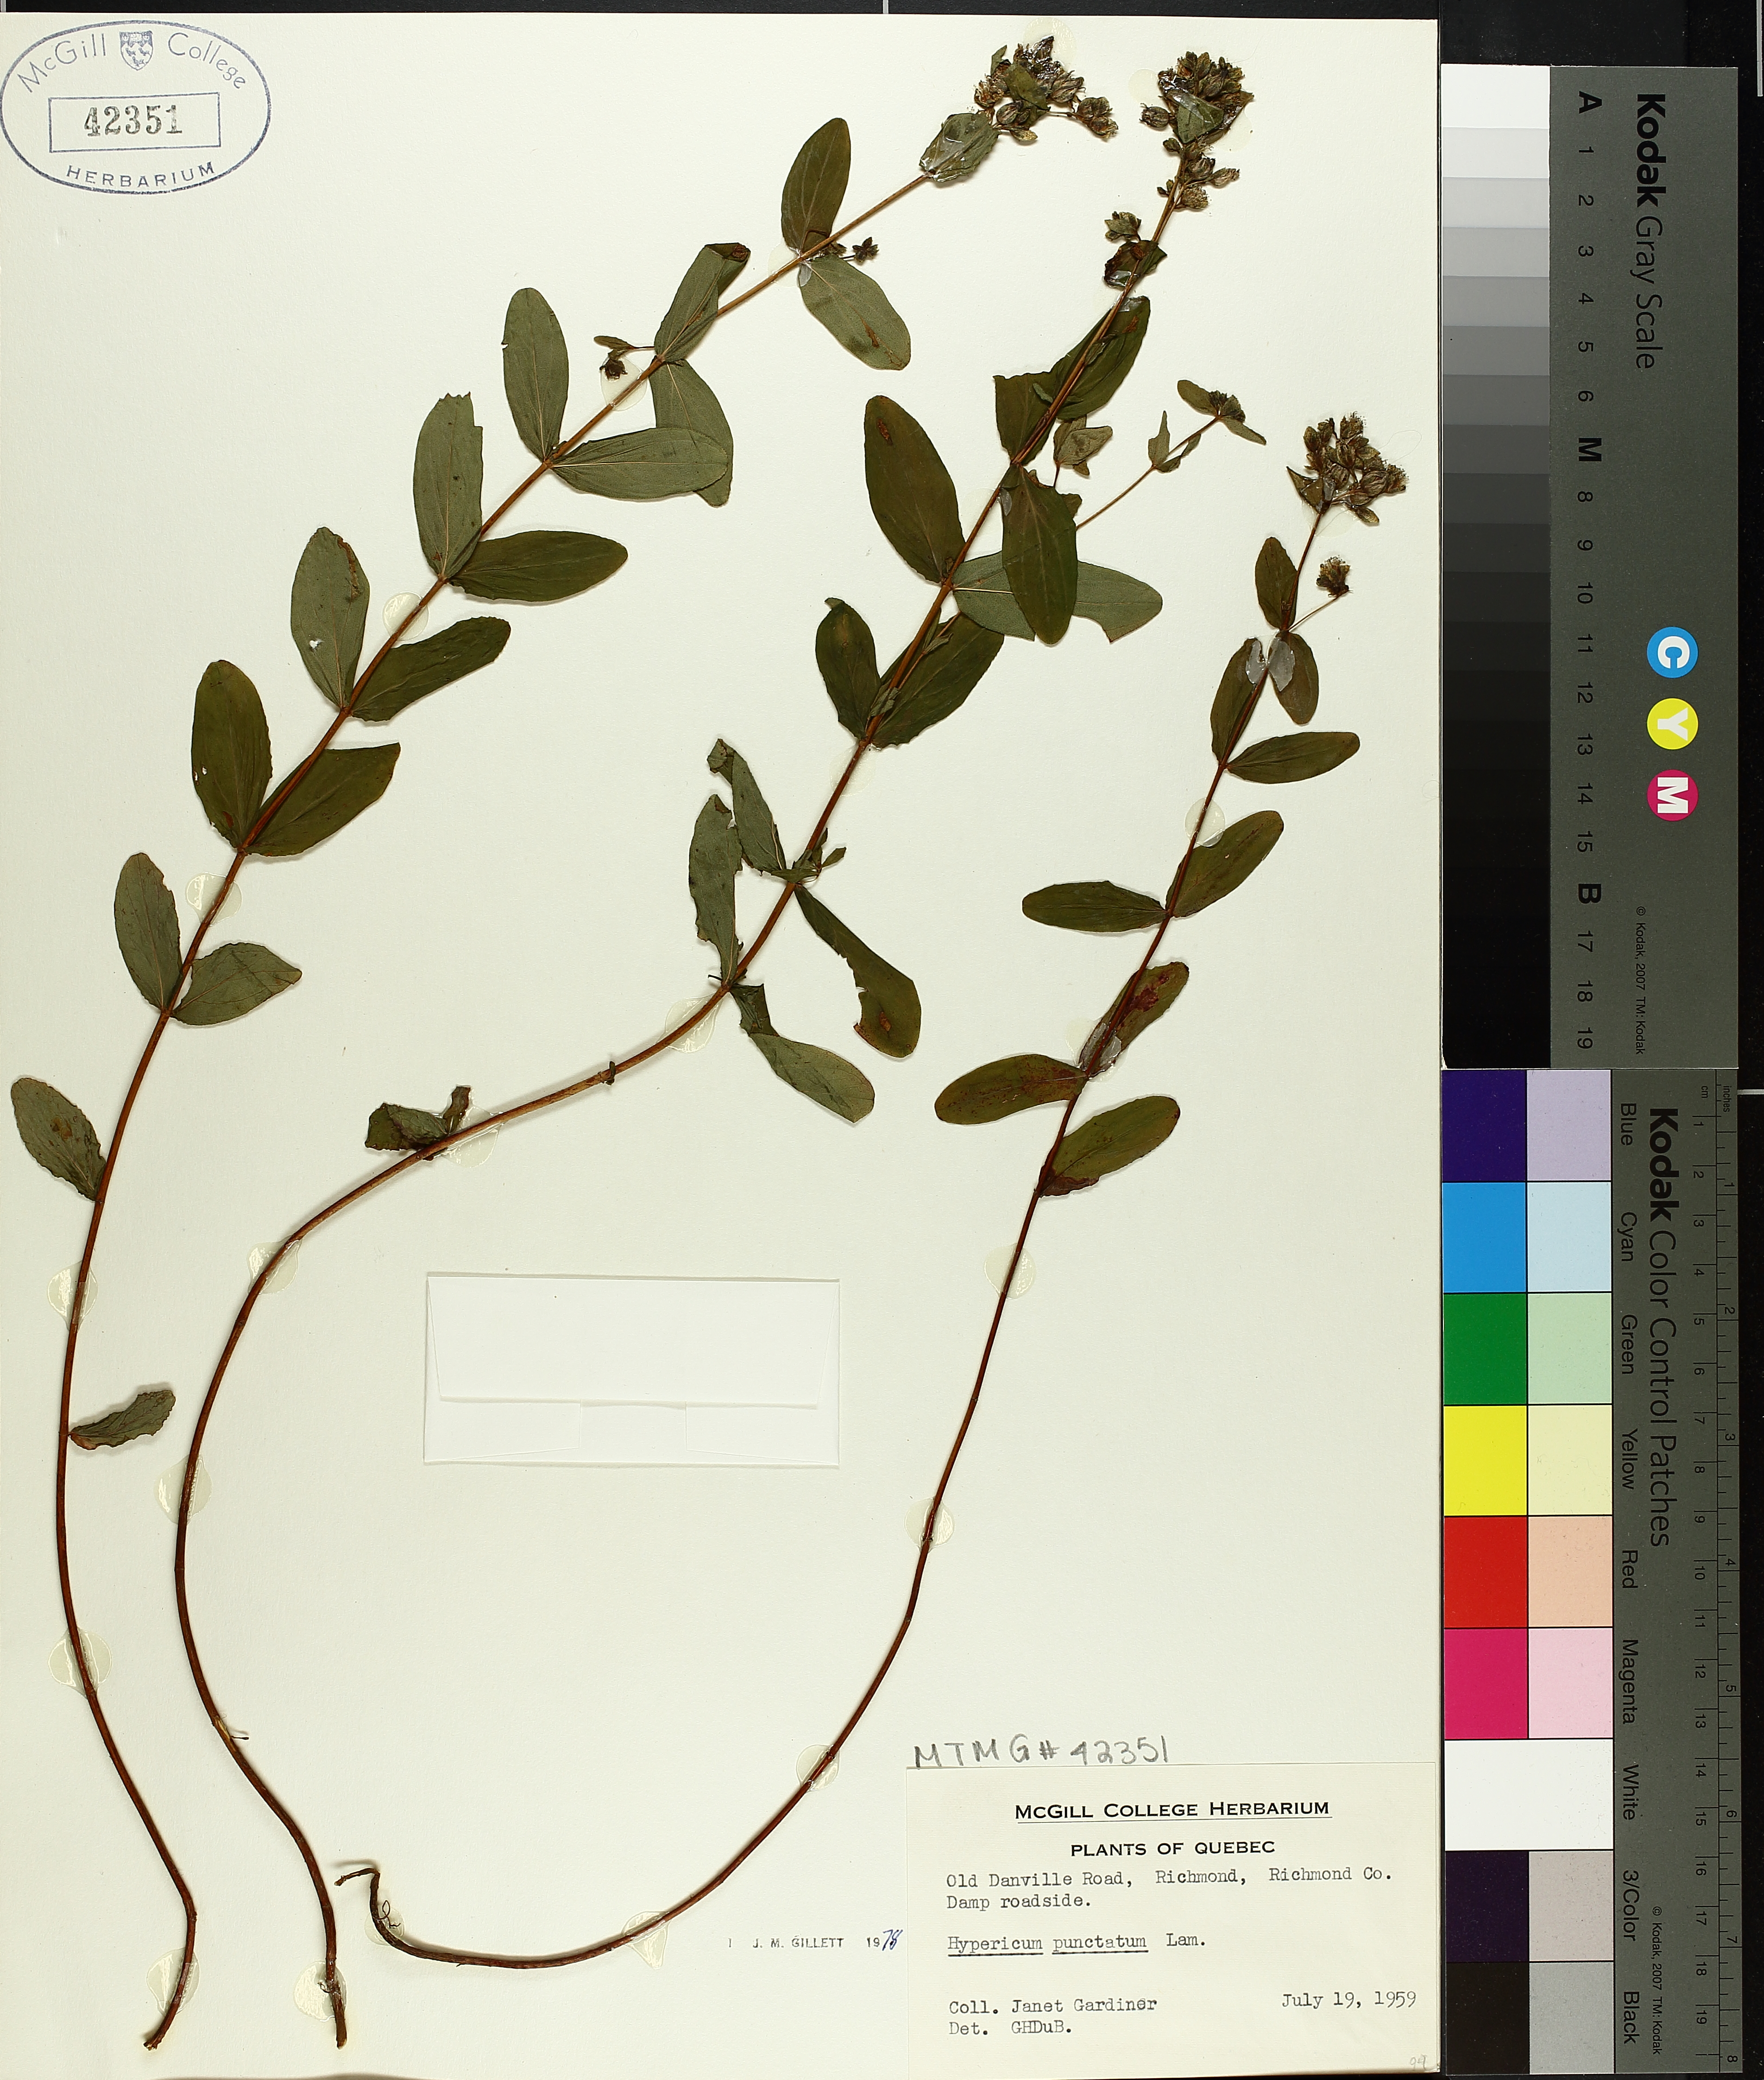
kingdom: Plantae
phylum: Tracheophyta
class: Magnoliopsida
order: Malpighiales
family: Hypericaceae
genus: Hypericum
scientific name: Hypericum punctatum
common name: Spotted st. john's-wort
